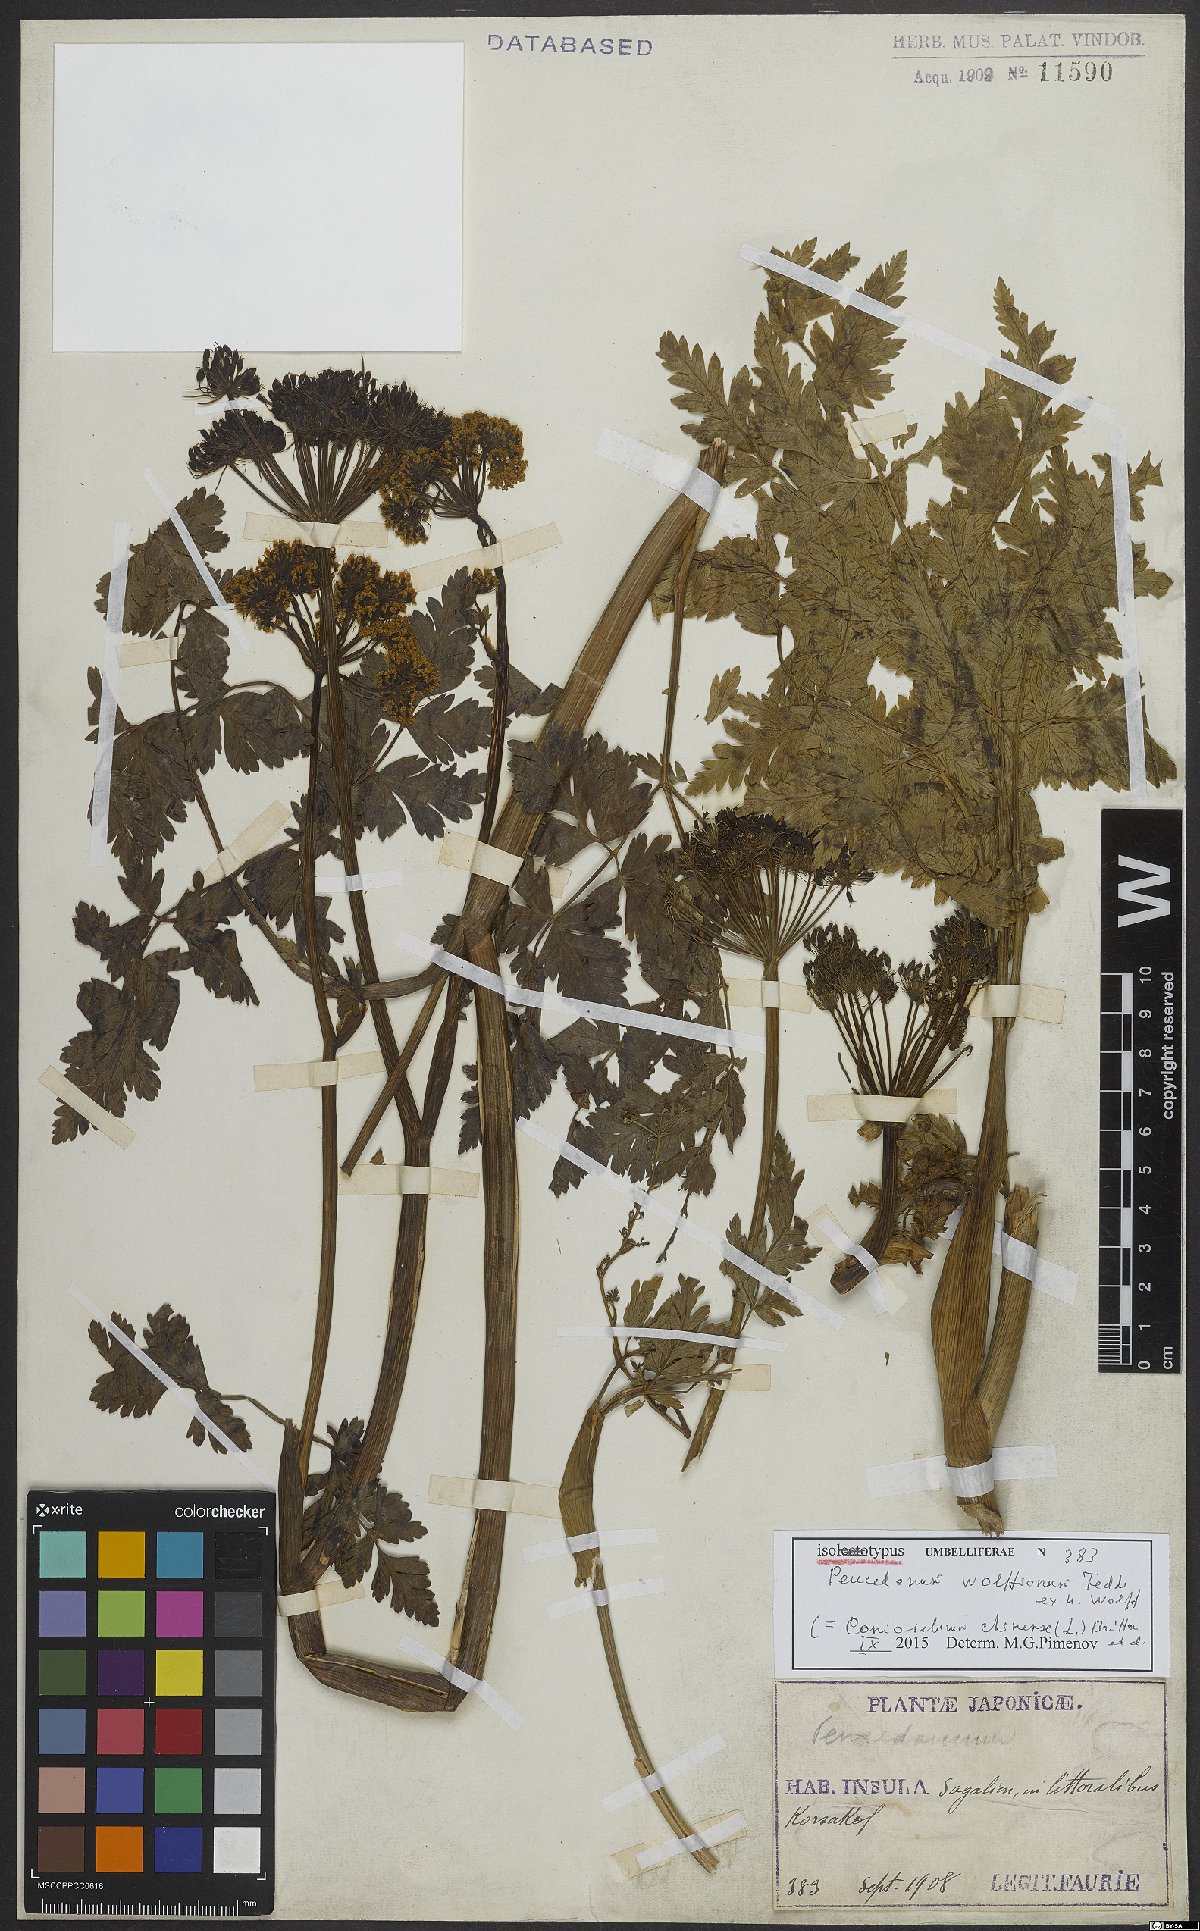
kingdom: Plantae
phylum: Tracheophyta
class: Magnoliopsida
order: Apiales
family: Apiaceae
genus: Kreidion
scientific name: Kreidion chinensis
